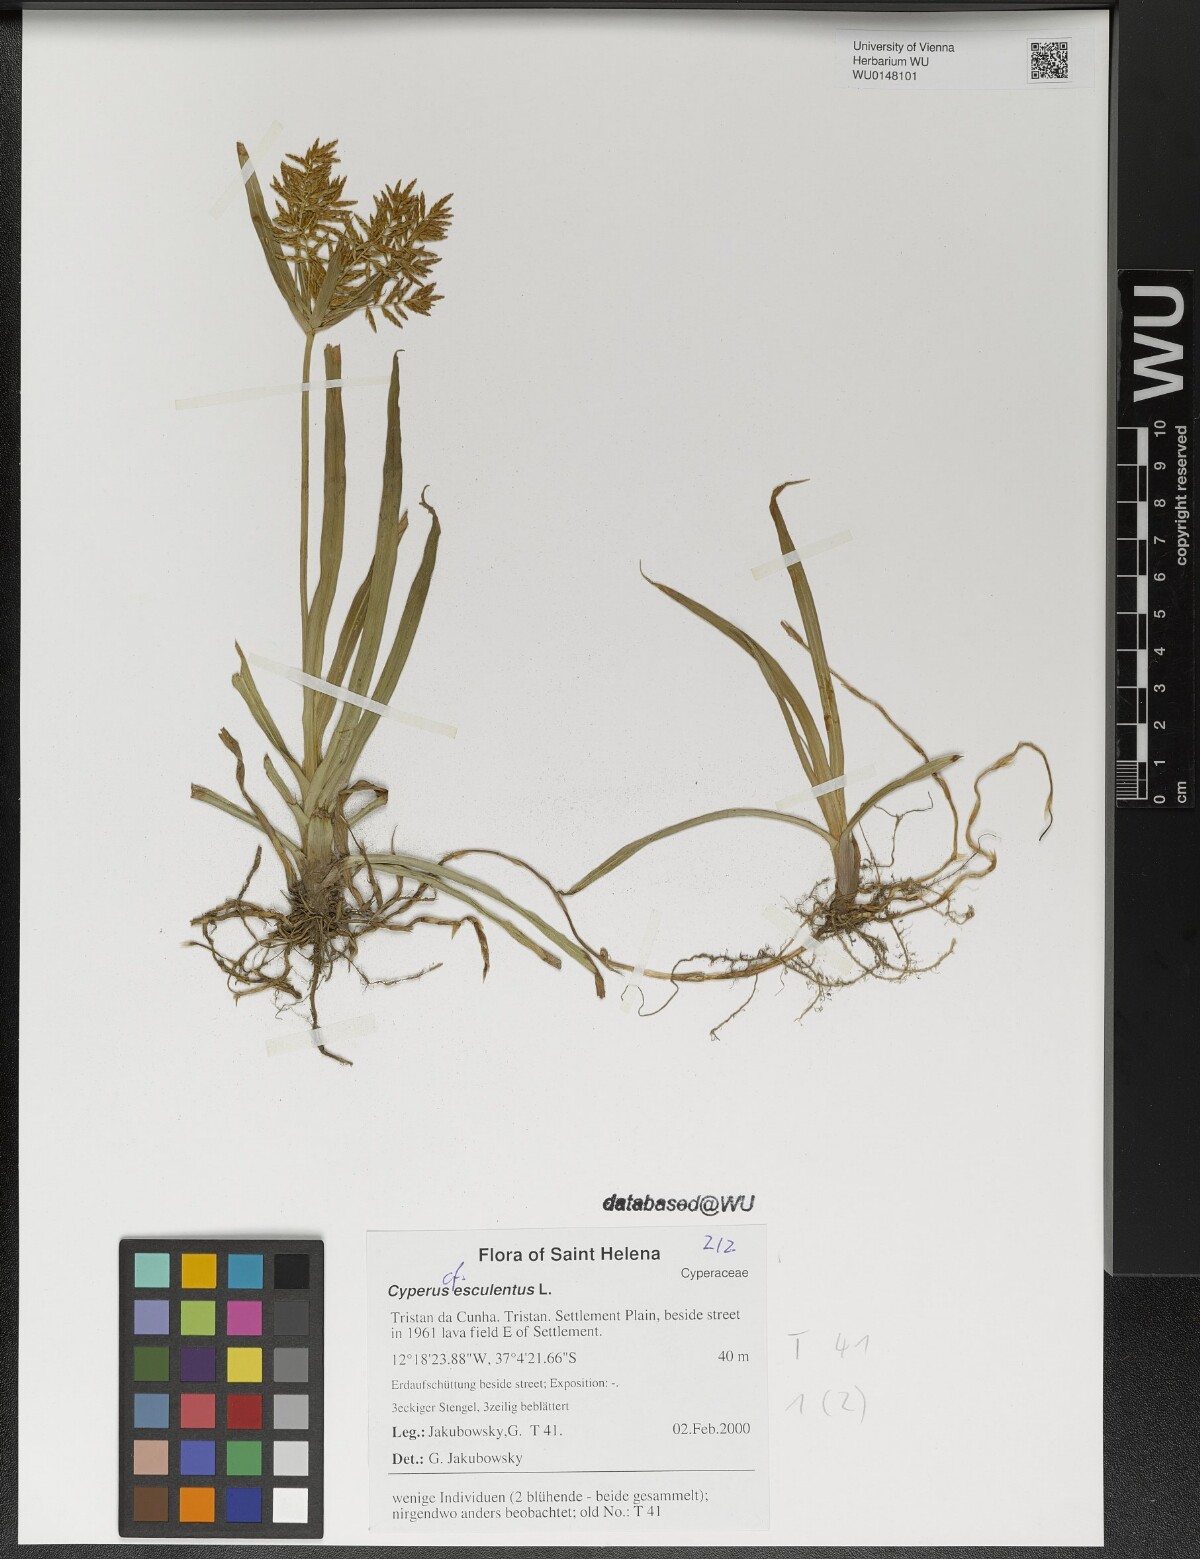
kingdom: Plantae
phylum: Tracheophyta
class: Liliopsida
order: Poales
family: Cyperaceae
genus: Cyperus
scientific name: Cyperus esculentus
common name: Yellow nutsedge
